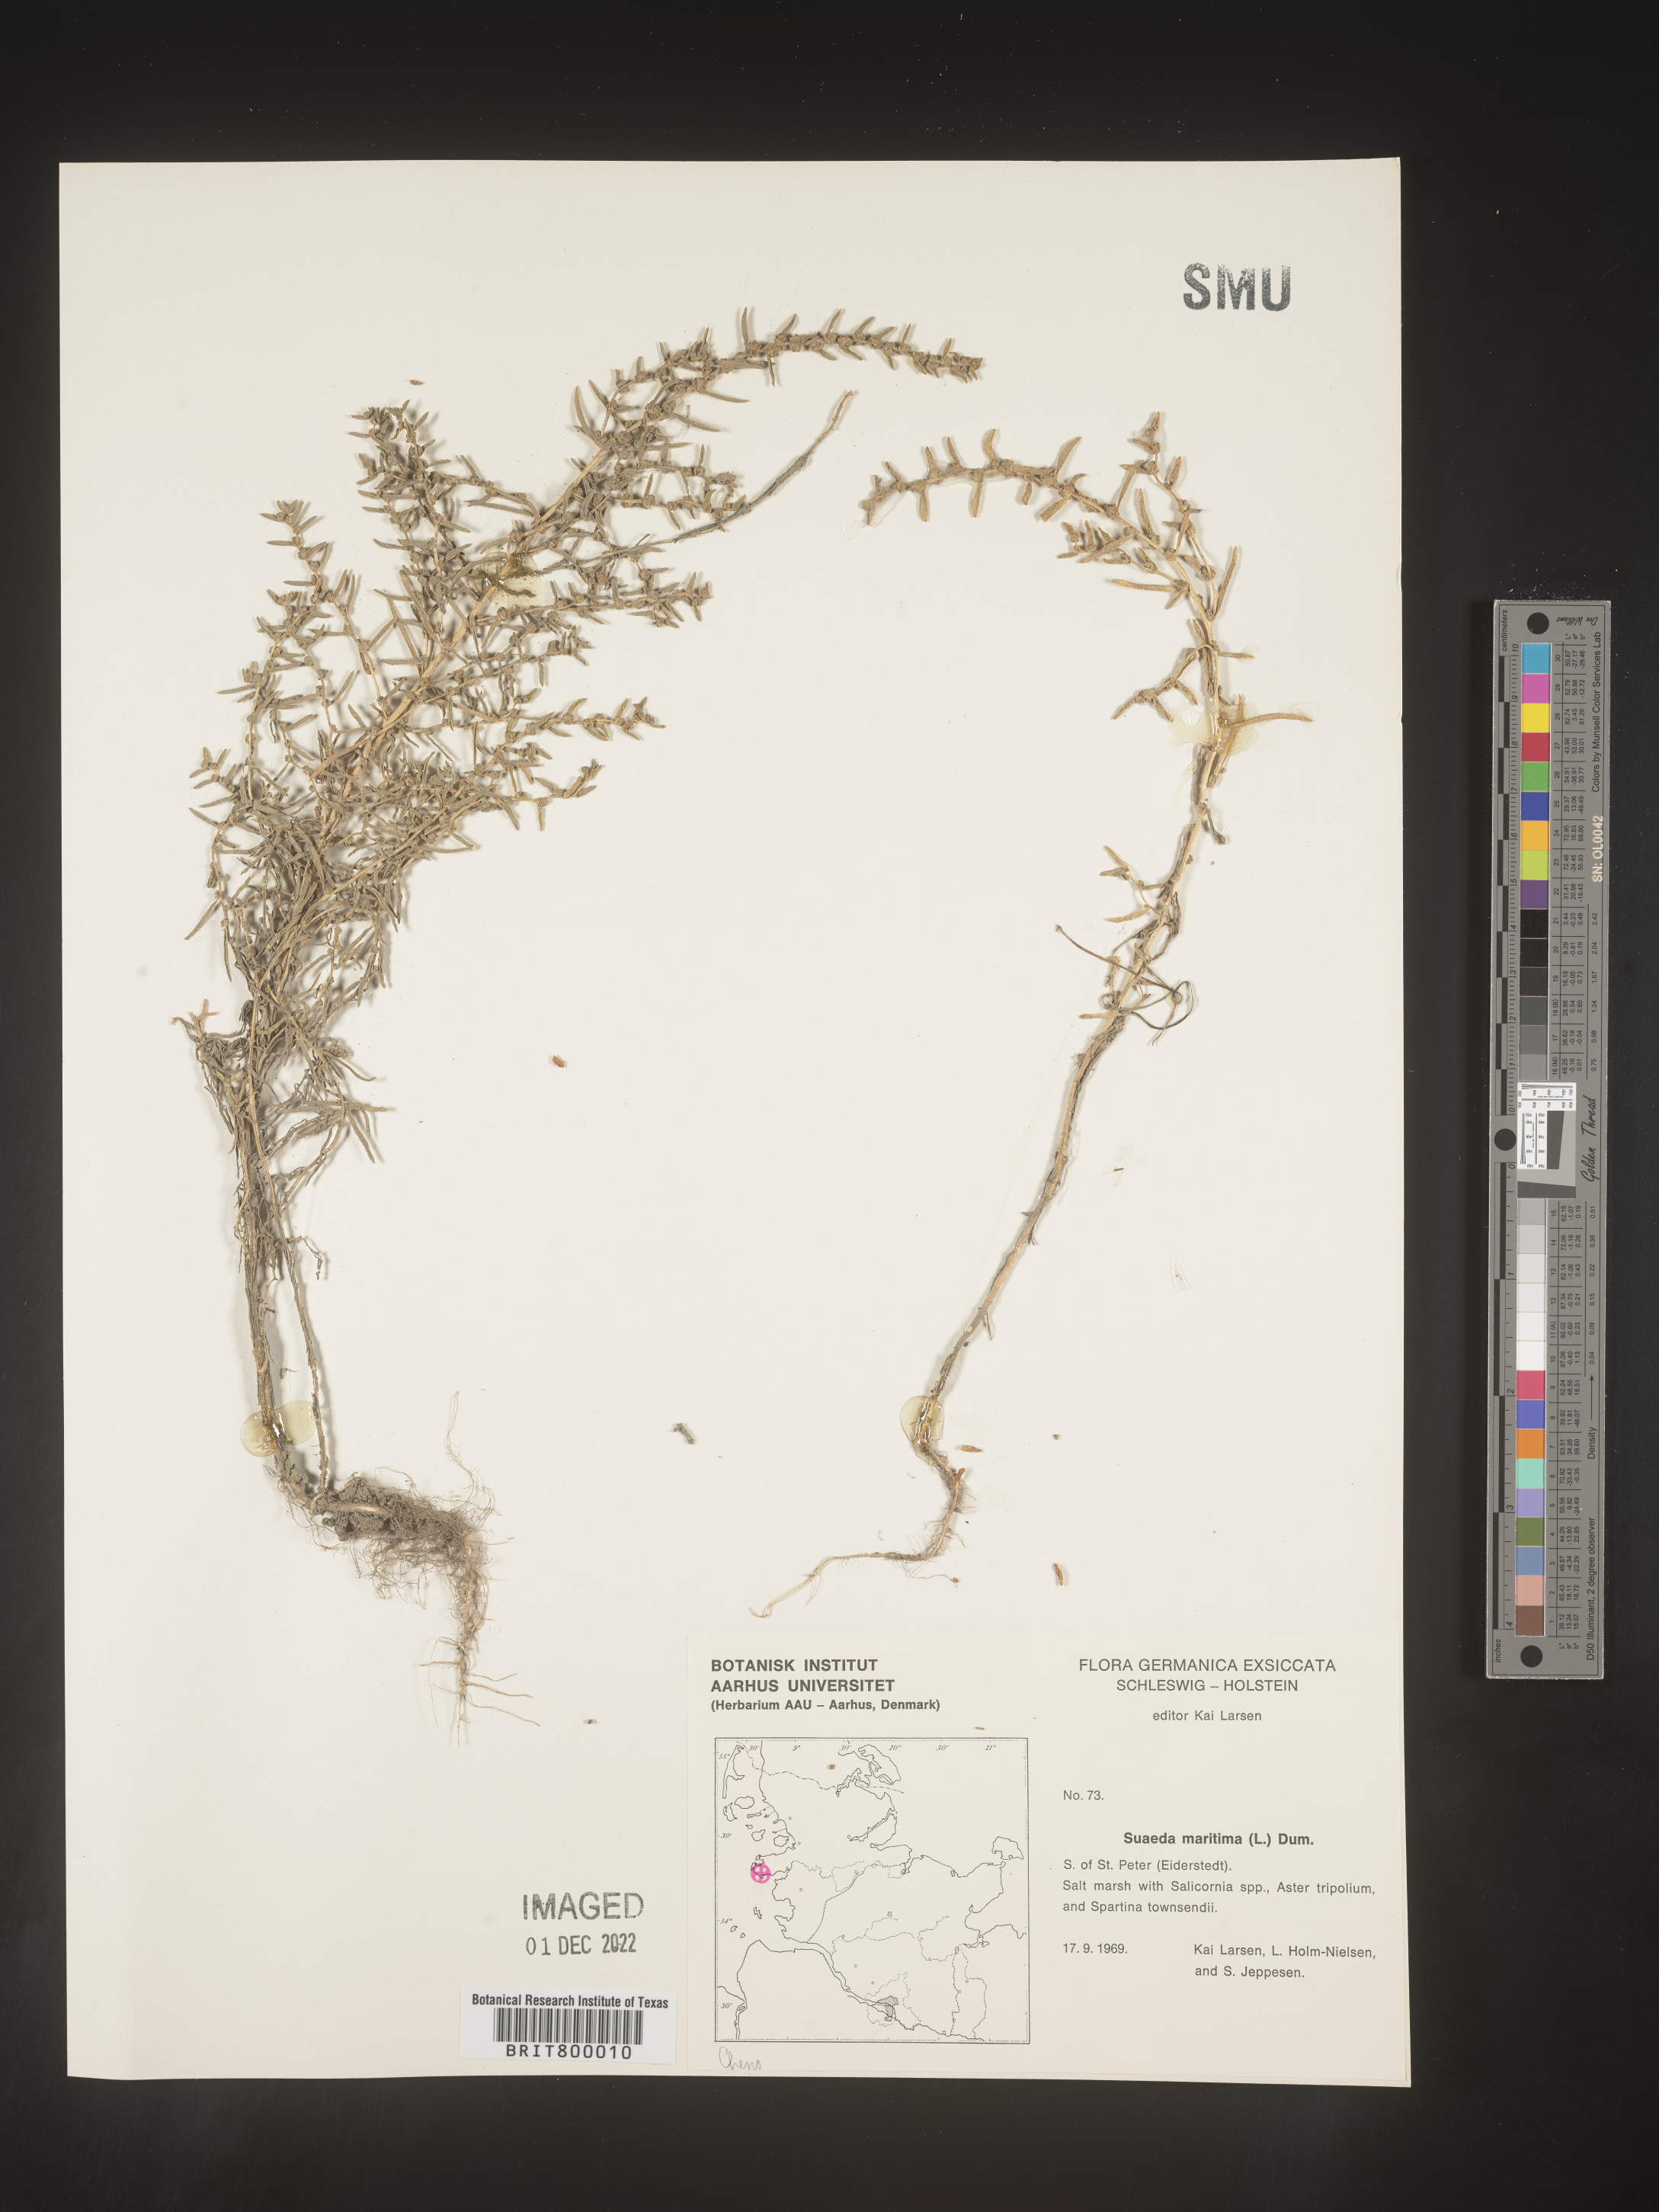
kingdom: Plantae
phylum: Tracheophyta
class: Magnoliopsida
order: Caryophyllales
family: Amaranthaceae
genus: Suaeda
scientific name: Suaeda
